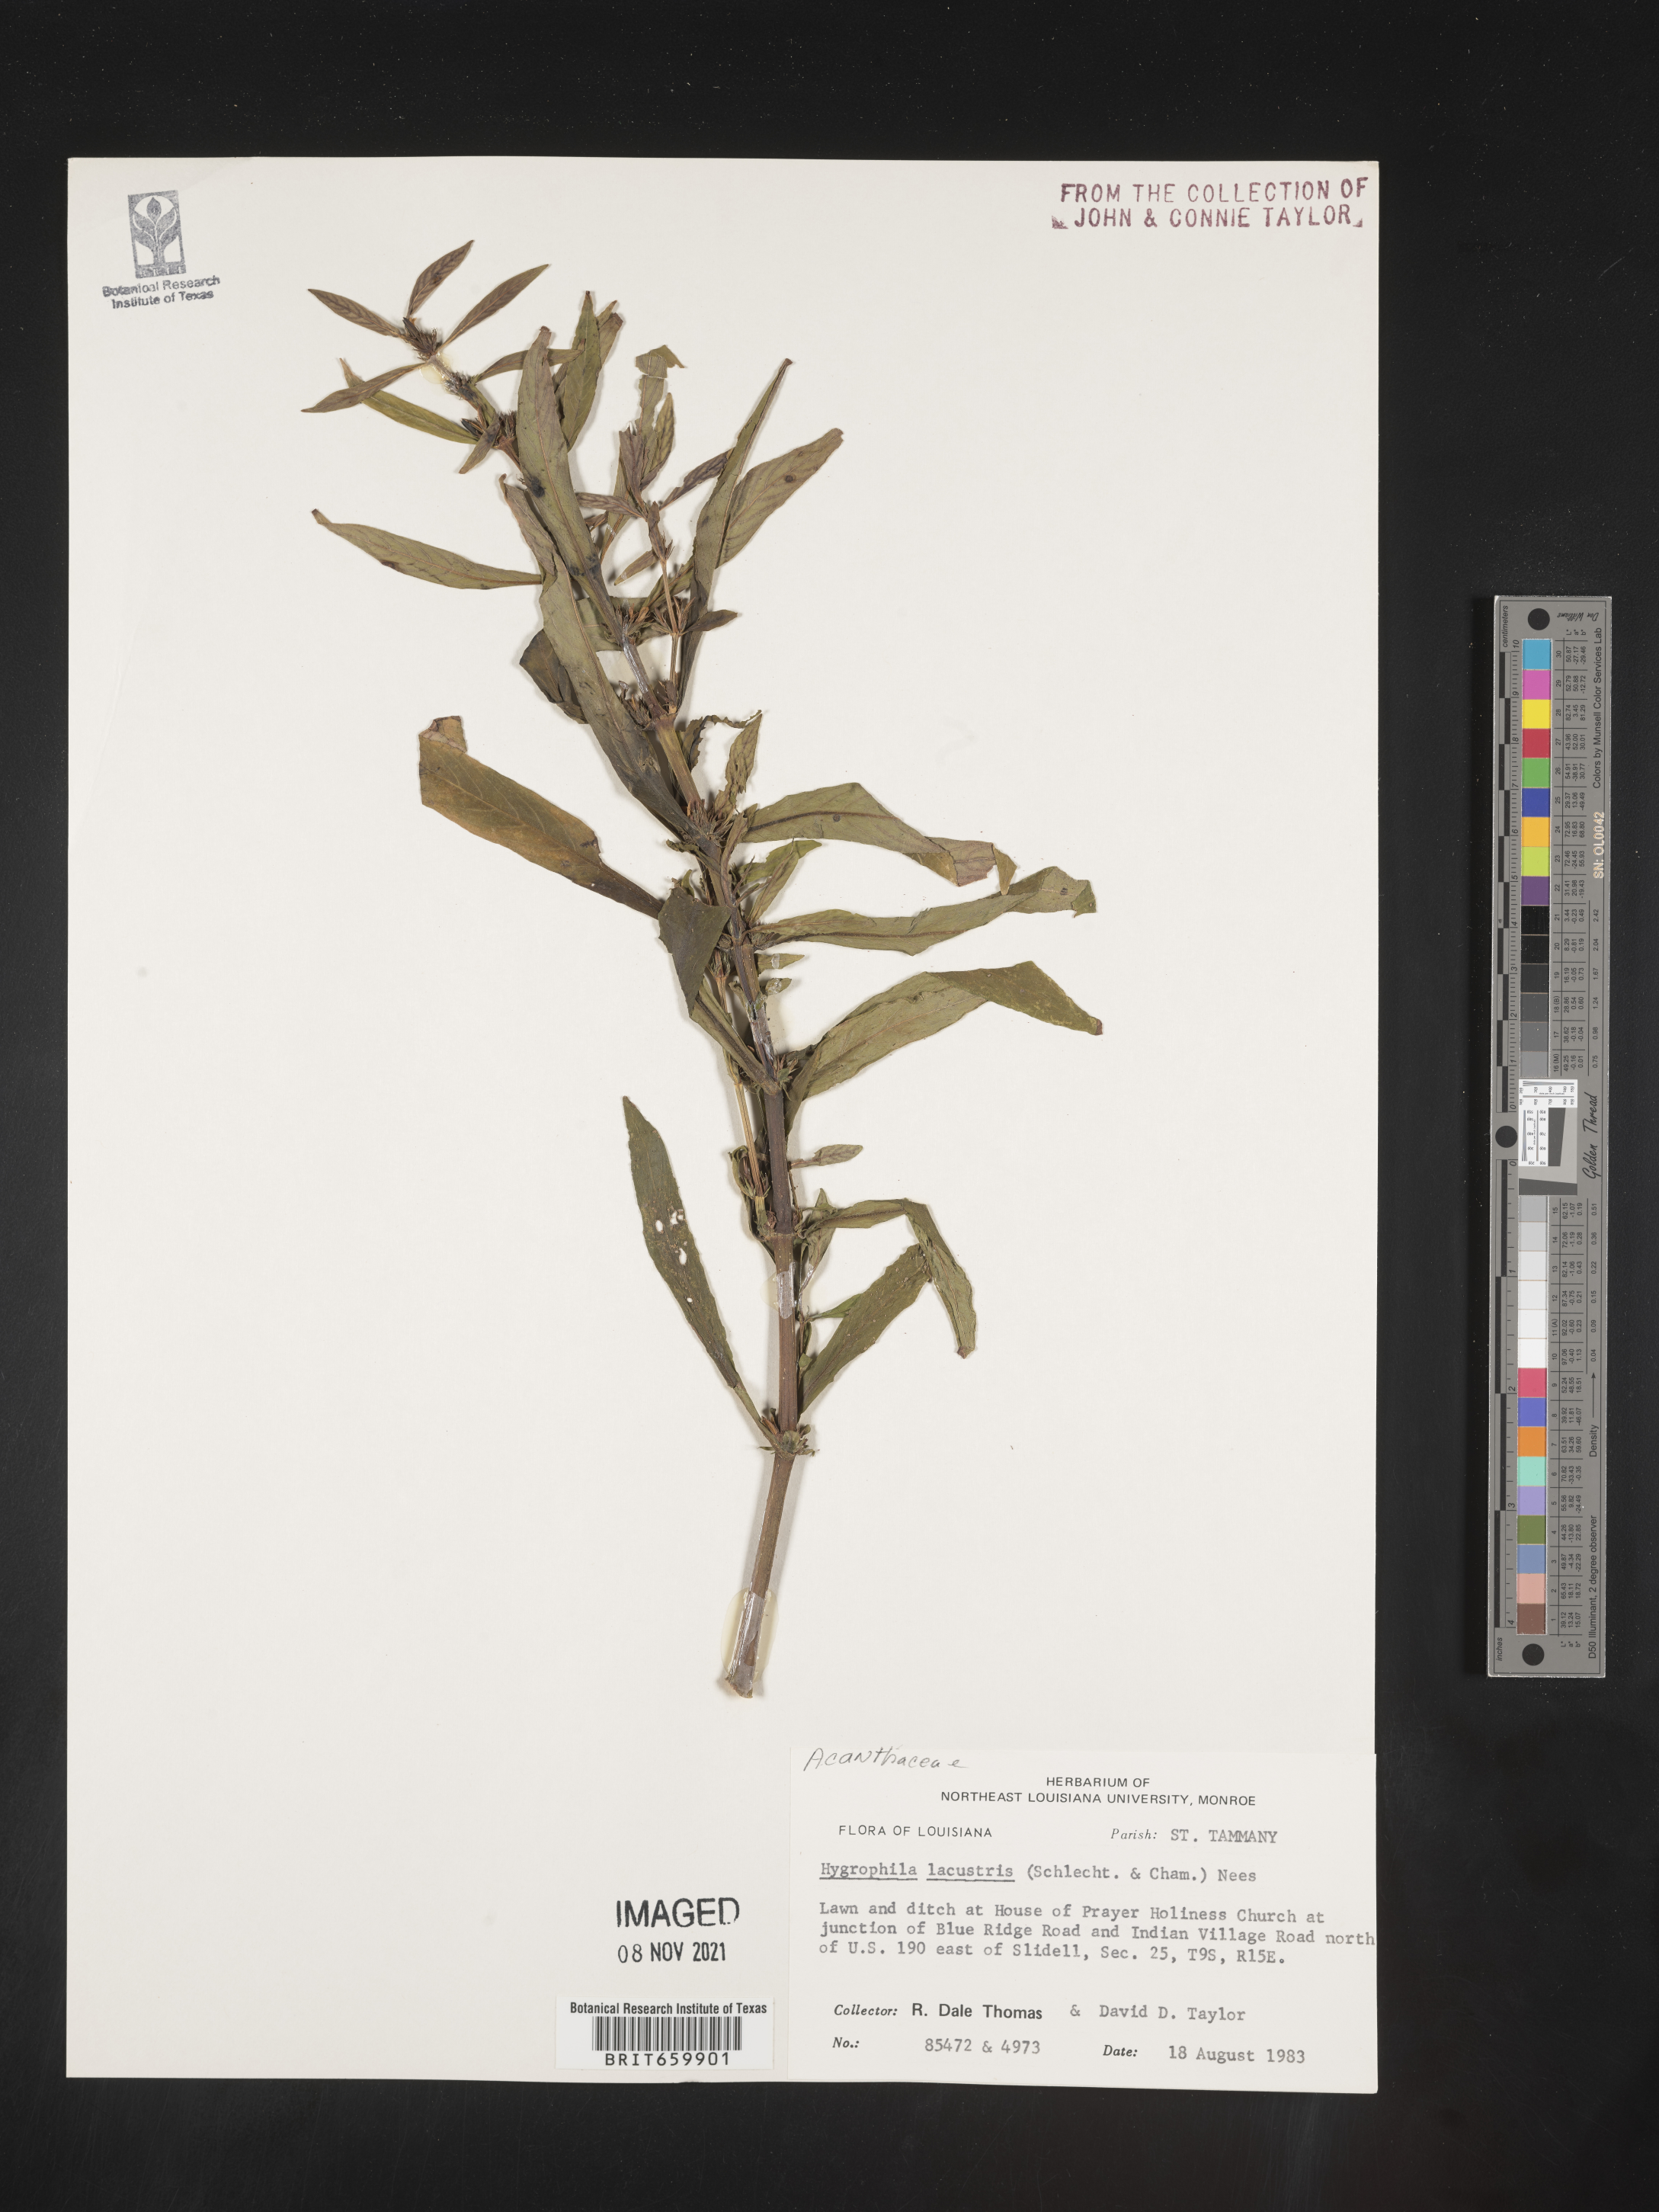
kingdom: Plantae
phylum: Tracheophyta
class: Magnoliopsida
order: Lamiales
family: Acanthaceae
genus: Hygrophila
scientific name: Hygrophila costata
